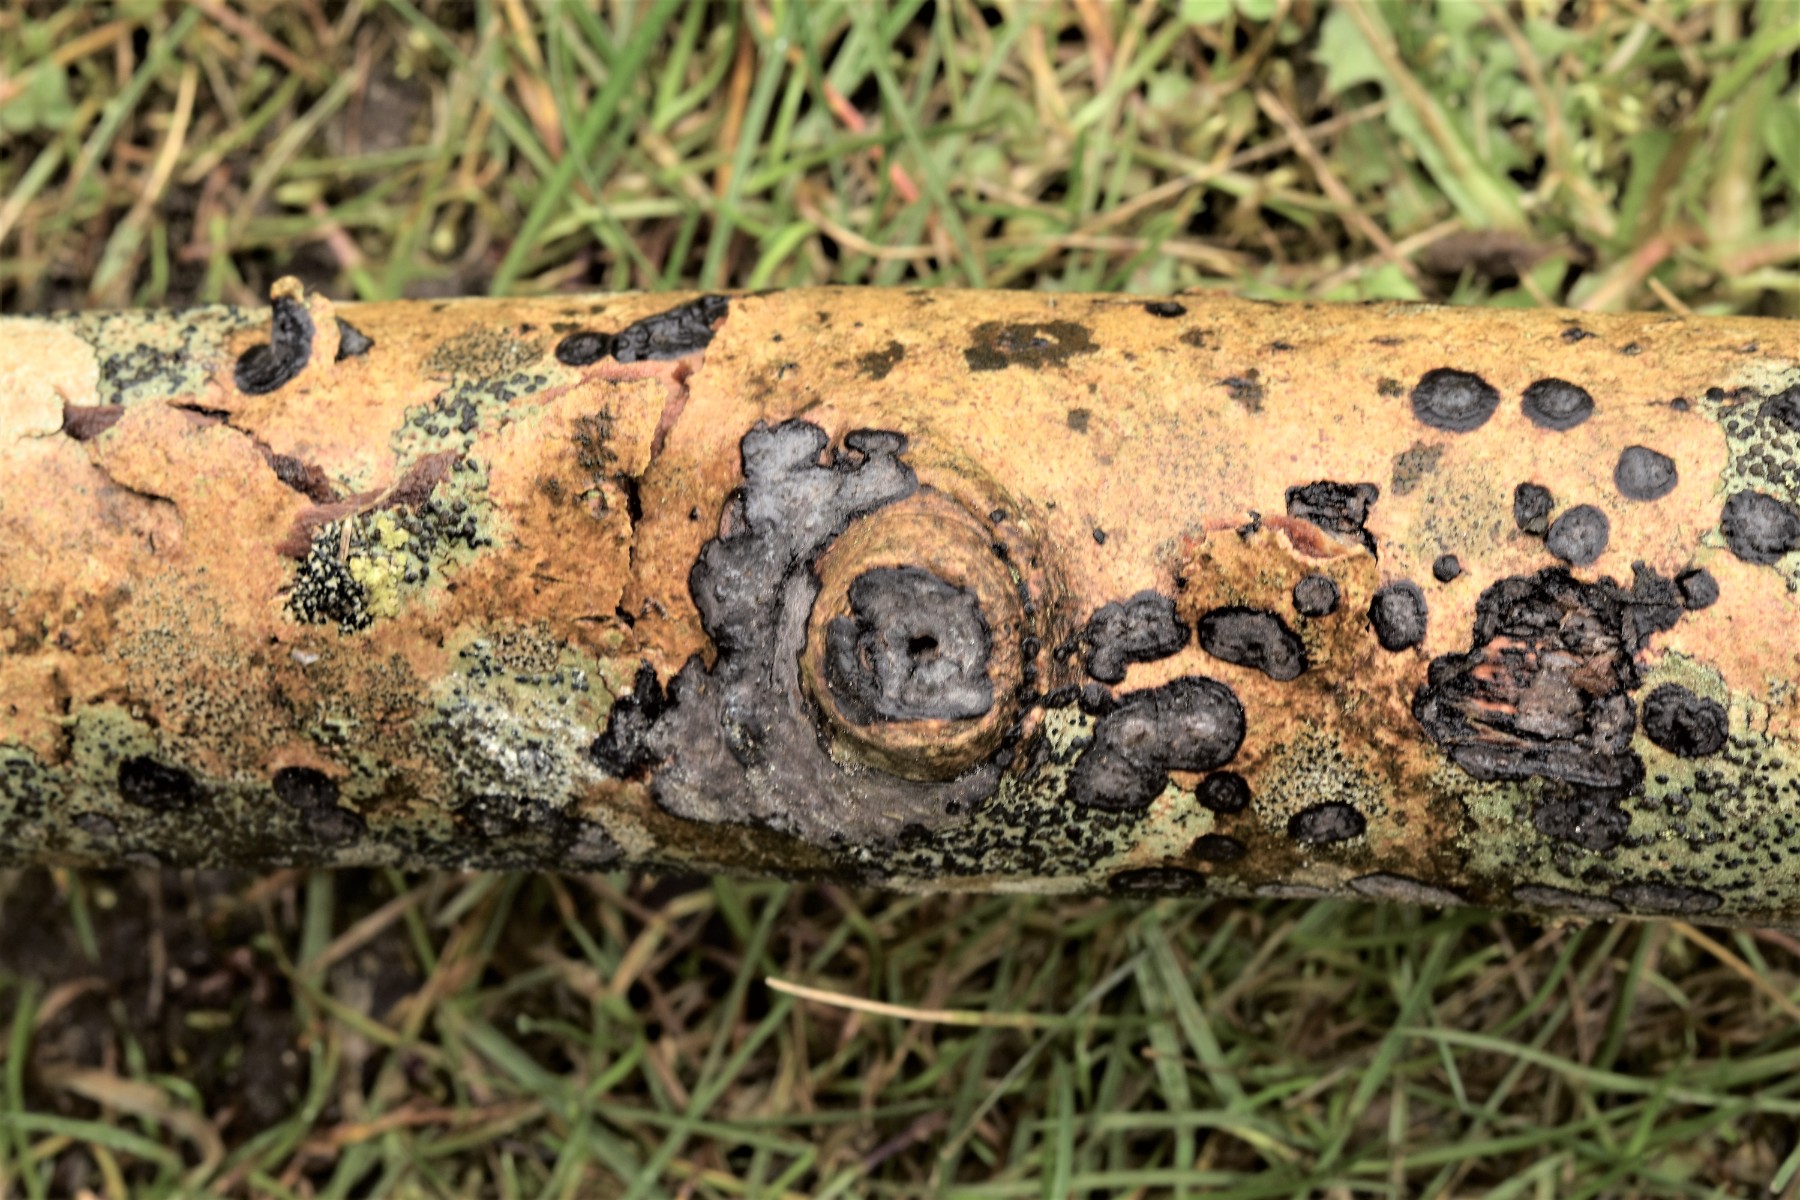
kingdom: Fungi
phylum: Basidiomycota
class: Agaricomycetes
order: Russulales
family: Peniophoraceae
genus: Peniophora
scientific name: Peniophora limitata
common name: mørkrandet voksskind
